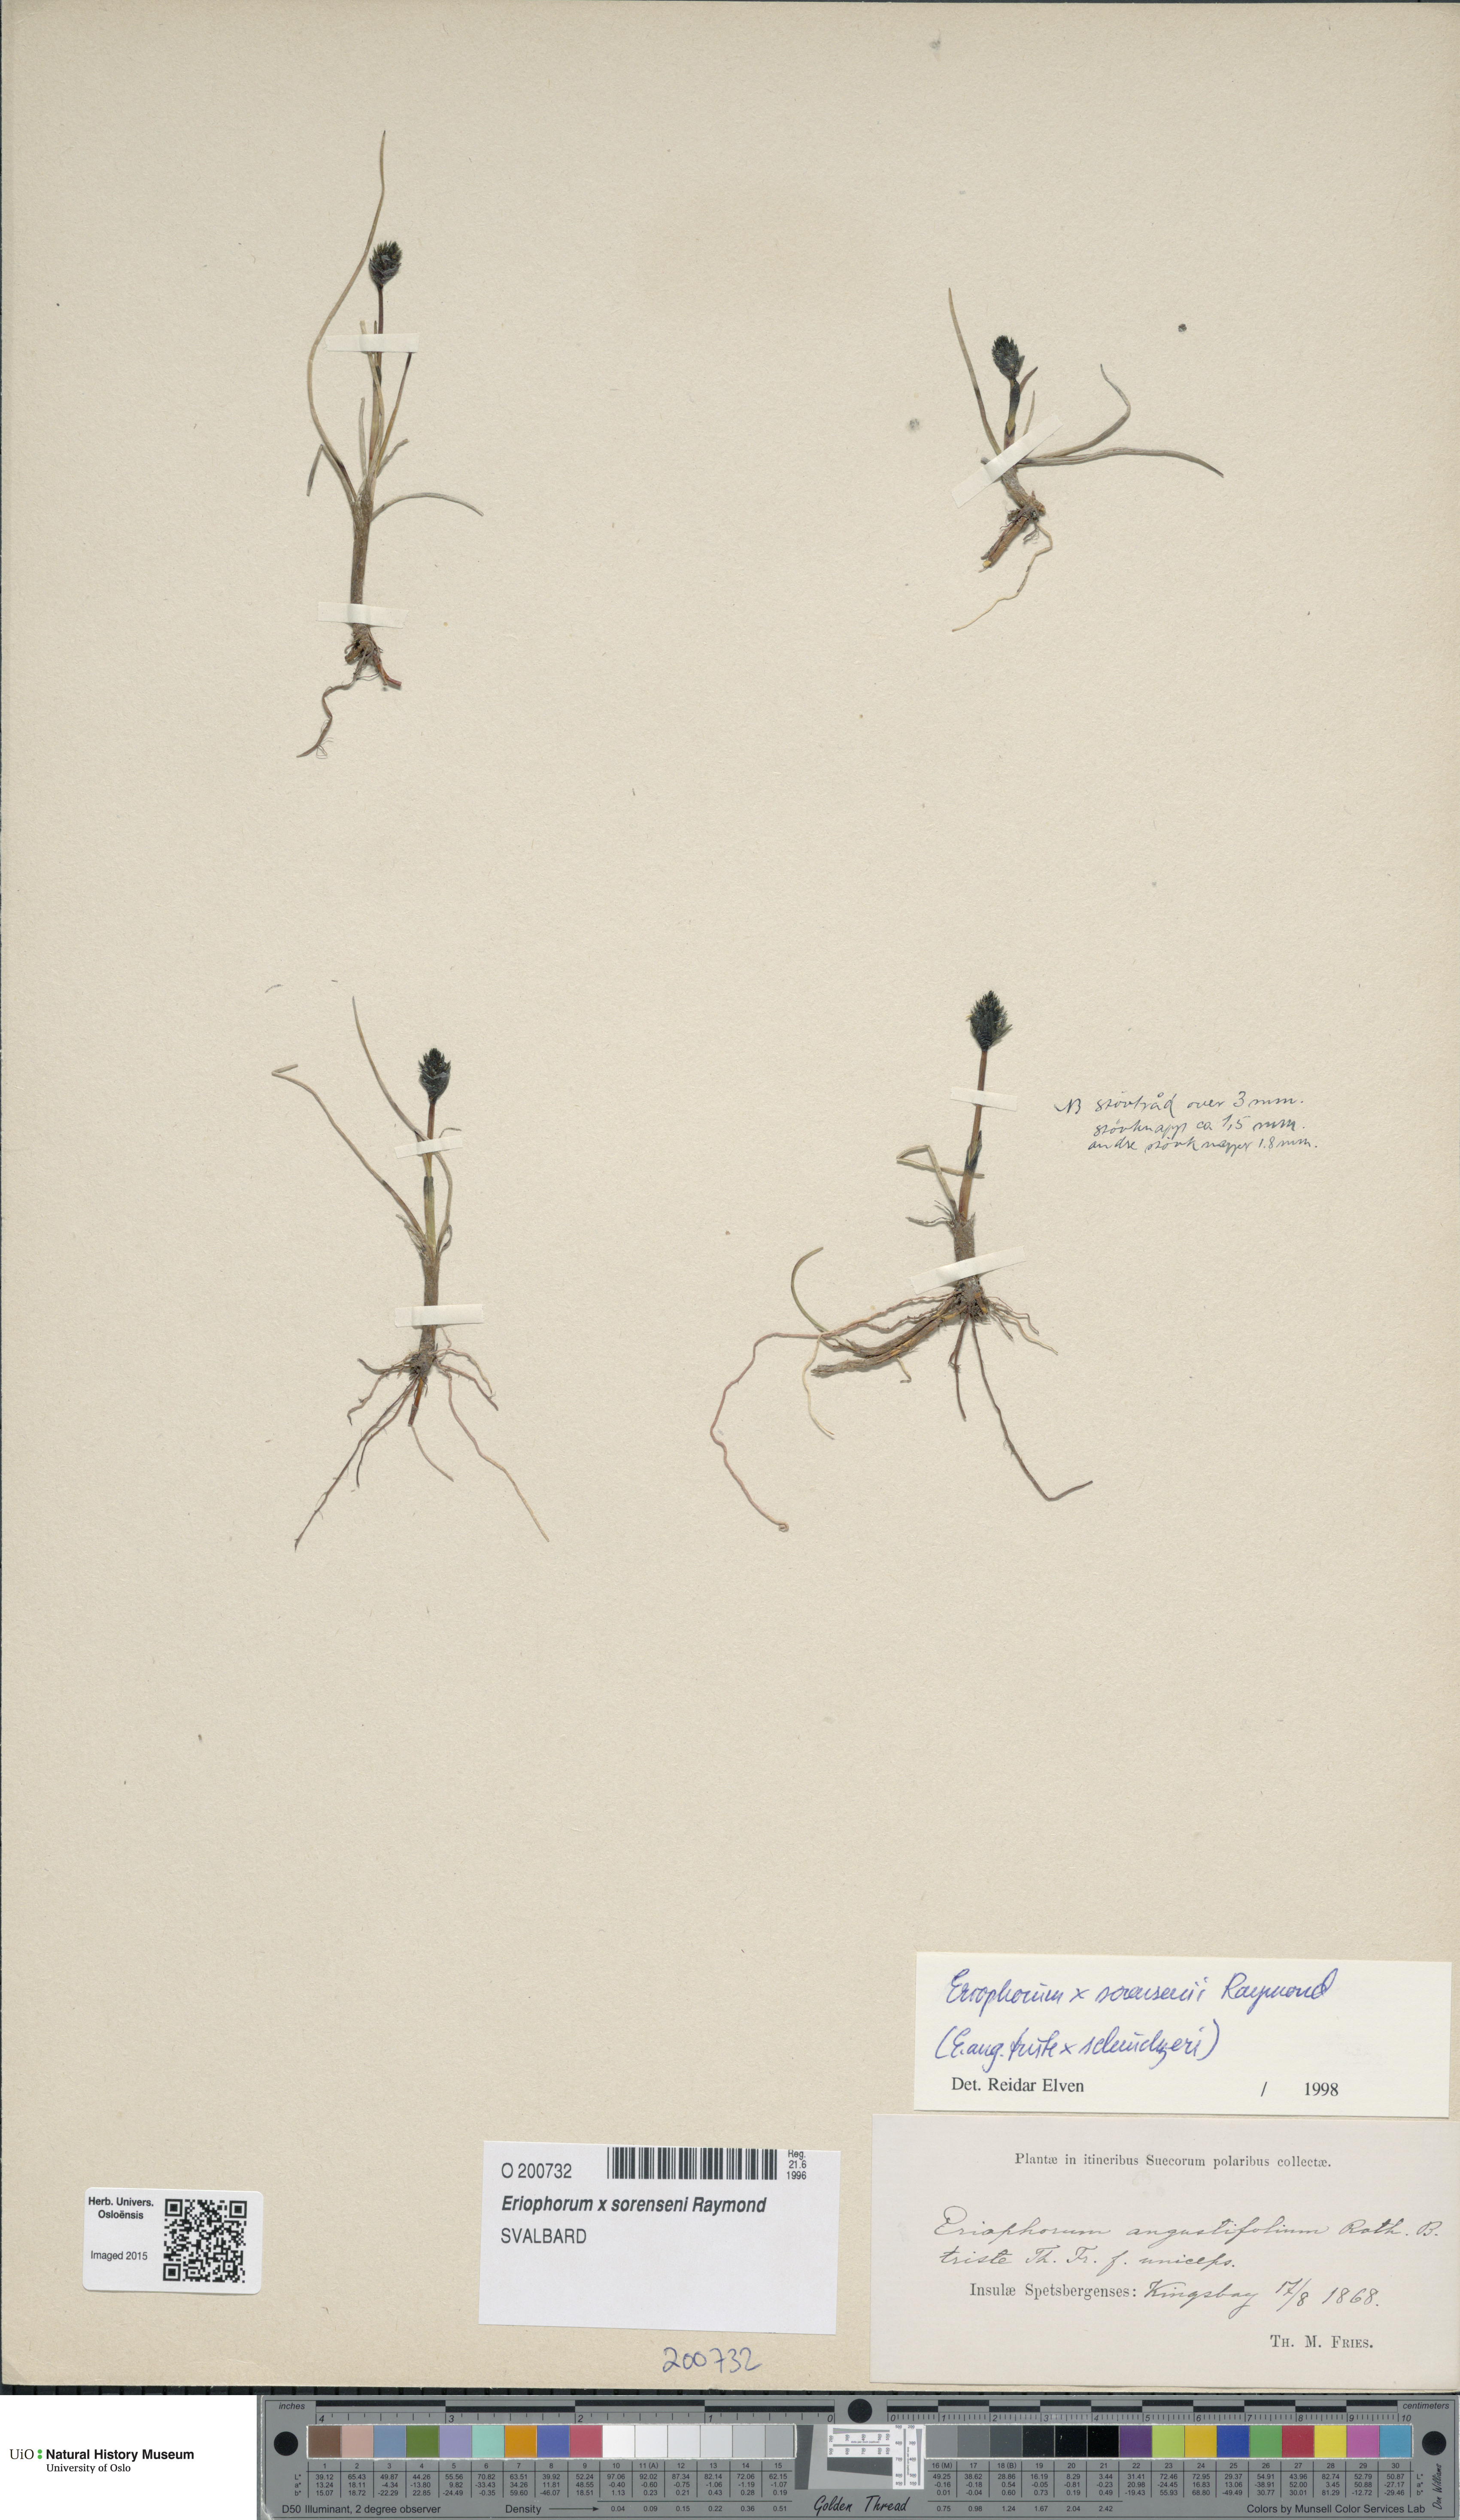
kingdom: Plantae
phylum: Tracheophyta
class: Liliopsida
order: Poales
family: Cyperaceae
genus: Eriophorum
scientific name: Eriophorum rousseauianum
